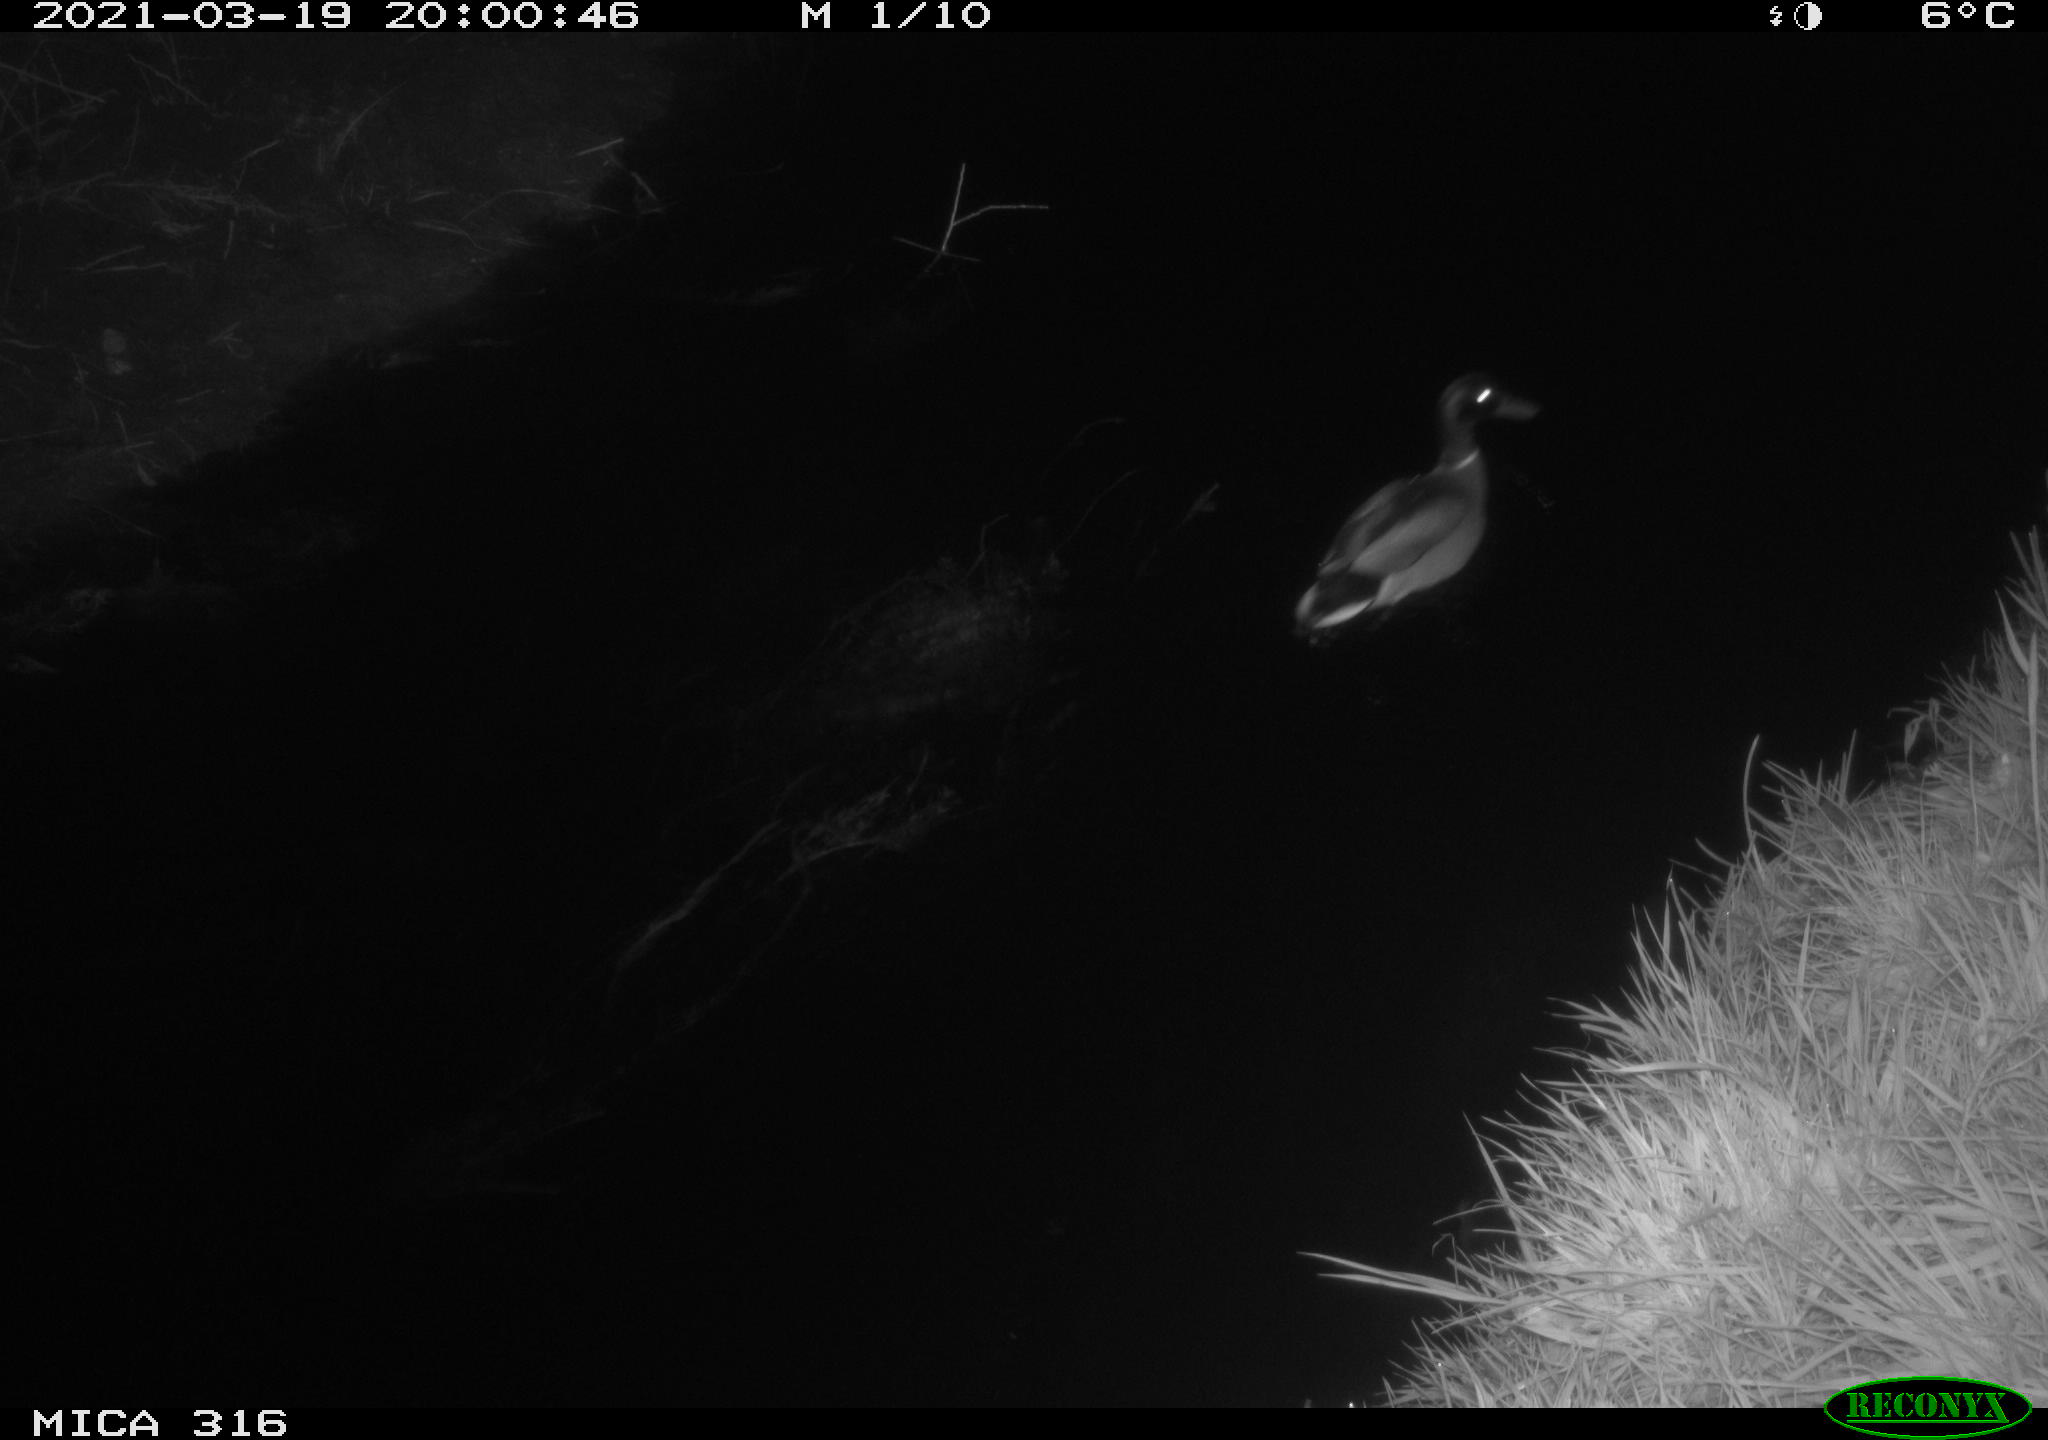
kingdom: Animalia
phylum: Chordata
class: Aves
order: Anseriformes
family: Anatidae
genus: Anas
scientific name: Anas platyrhynchos
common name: Mallard
